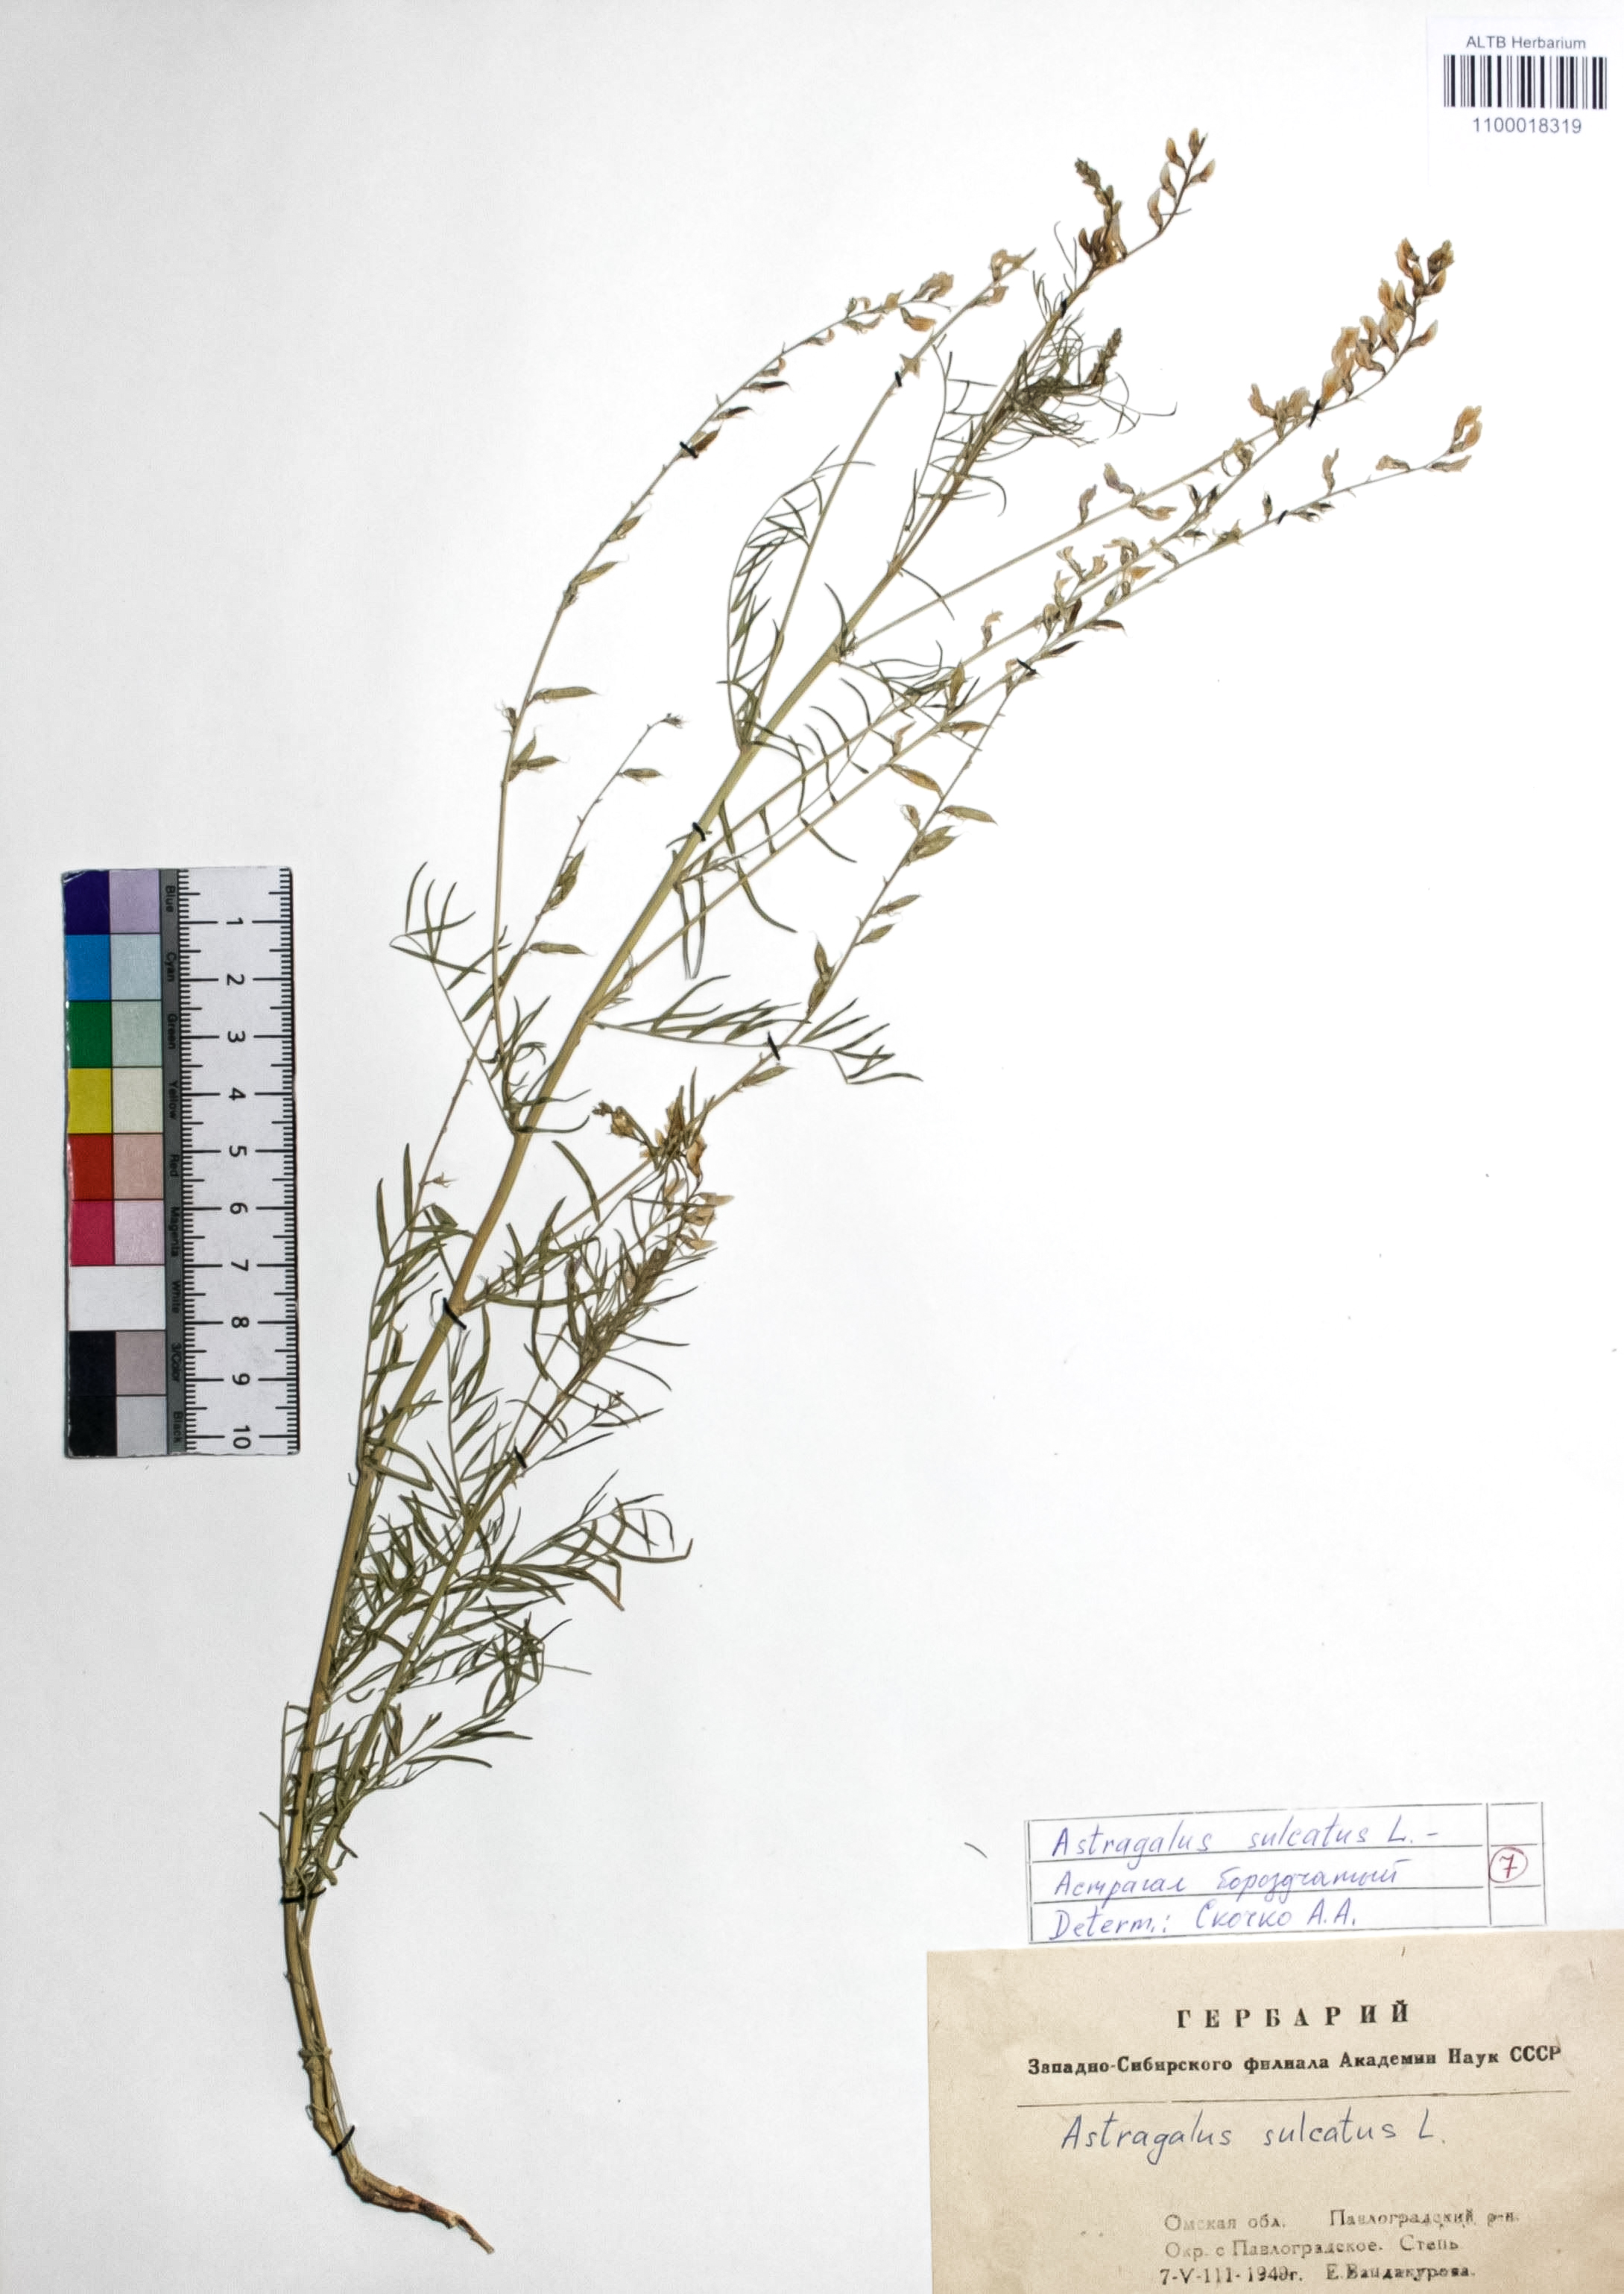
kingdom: Plantae
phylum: Tracheophyta
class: Magnoliopsida
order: Fabales
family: Fabaceae
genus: Astragalus
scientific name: Astragalus sulcatus
